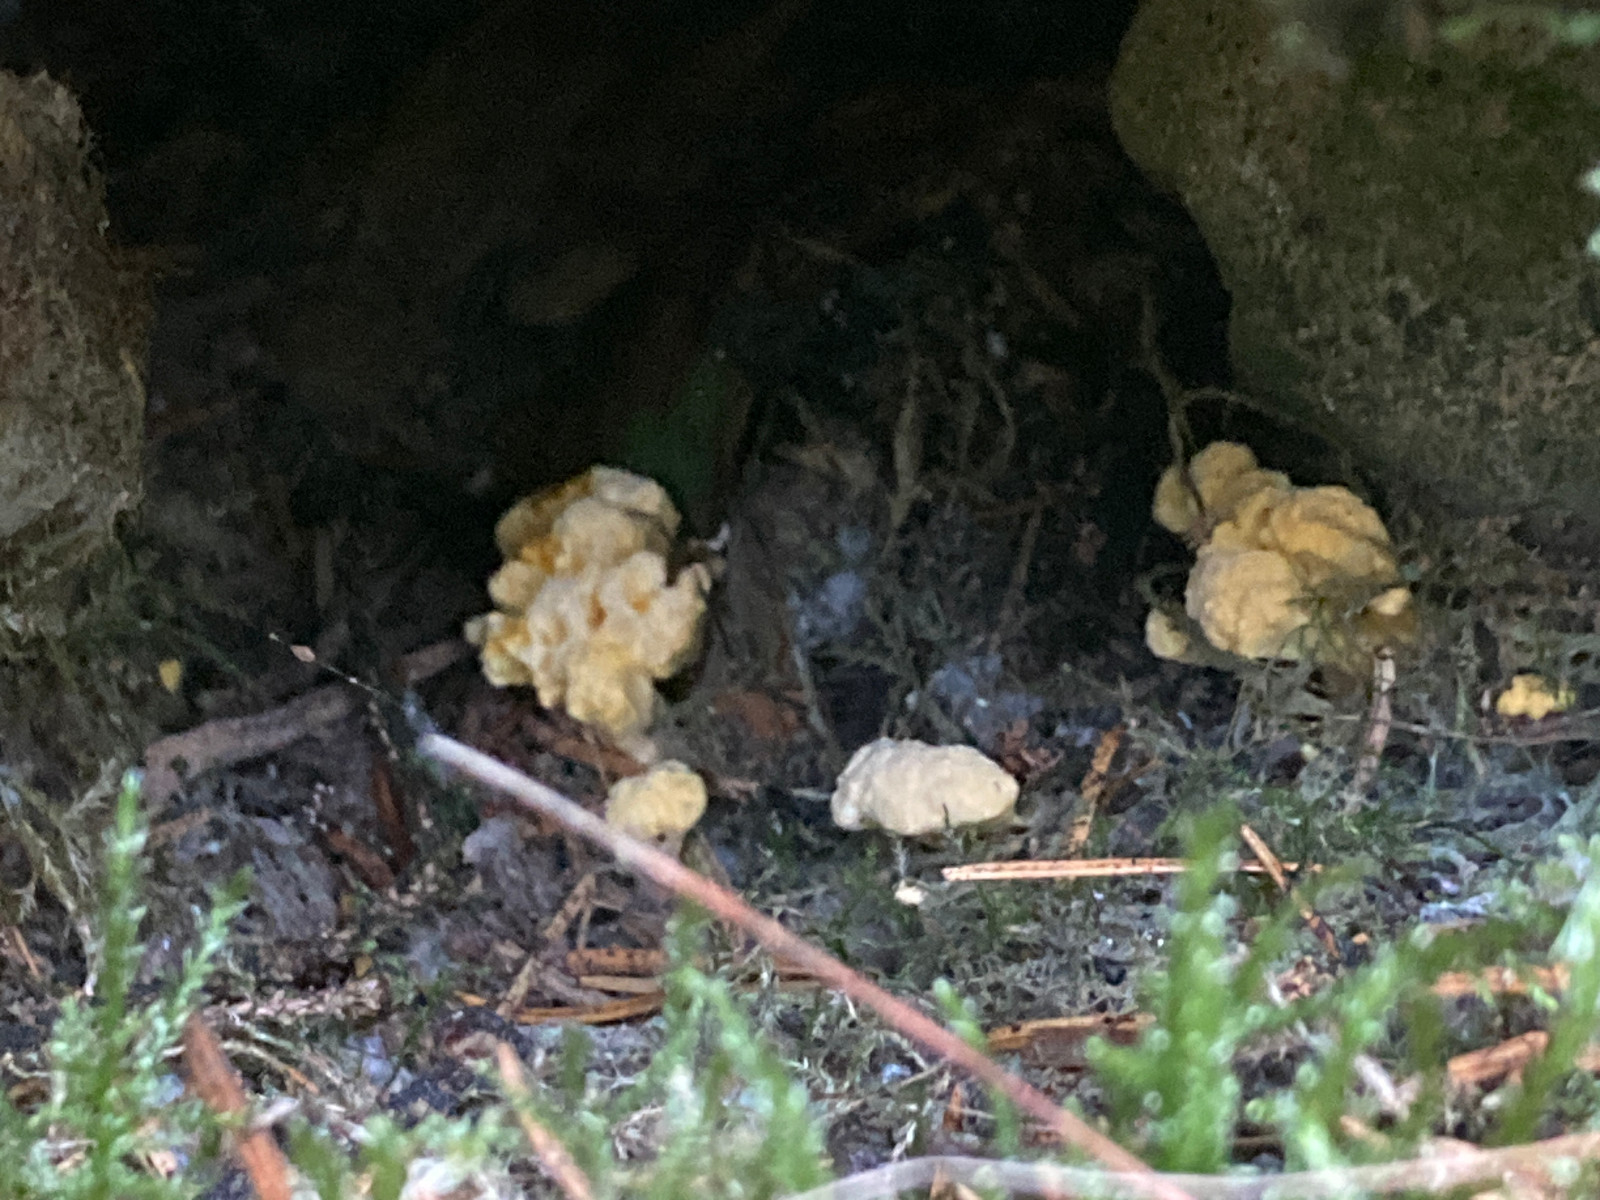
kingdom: Fungi
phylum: Basidiomycota
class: Agaricomycetes
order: Stereopsidales
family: Stereopsidaceae
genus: Stereopsis
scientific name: Stereopsis vitellina
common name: stilklædersvamp
